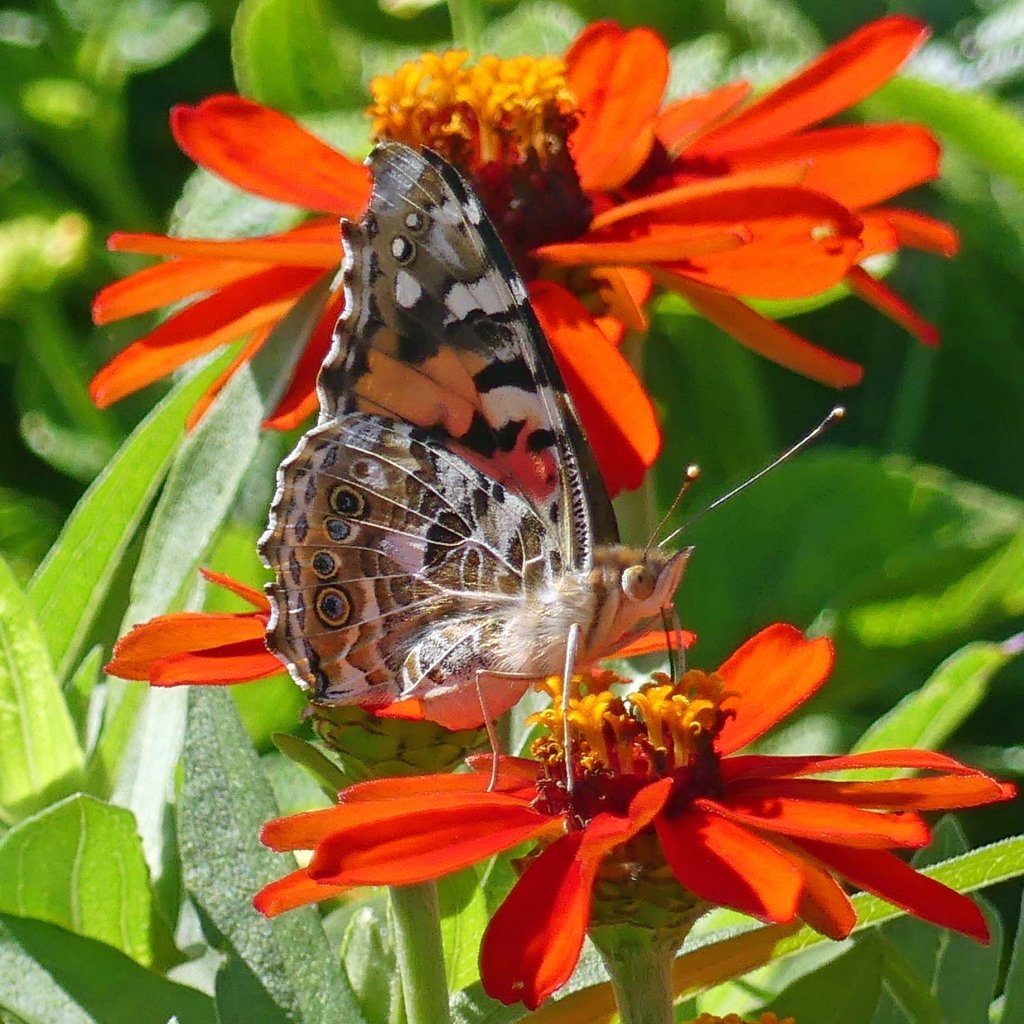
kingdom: Animalia
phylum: Arthropoda
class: Insecta
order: Lepidoptera
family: Nymphalidae
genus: Vanessa
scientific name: Vanessa cardui
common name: Painted Lady
